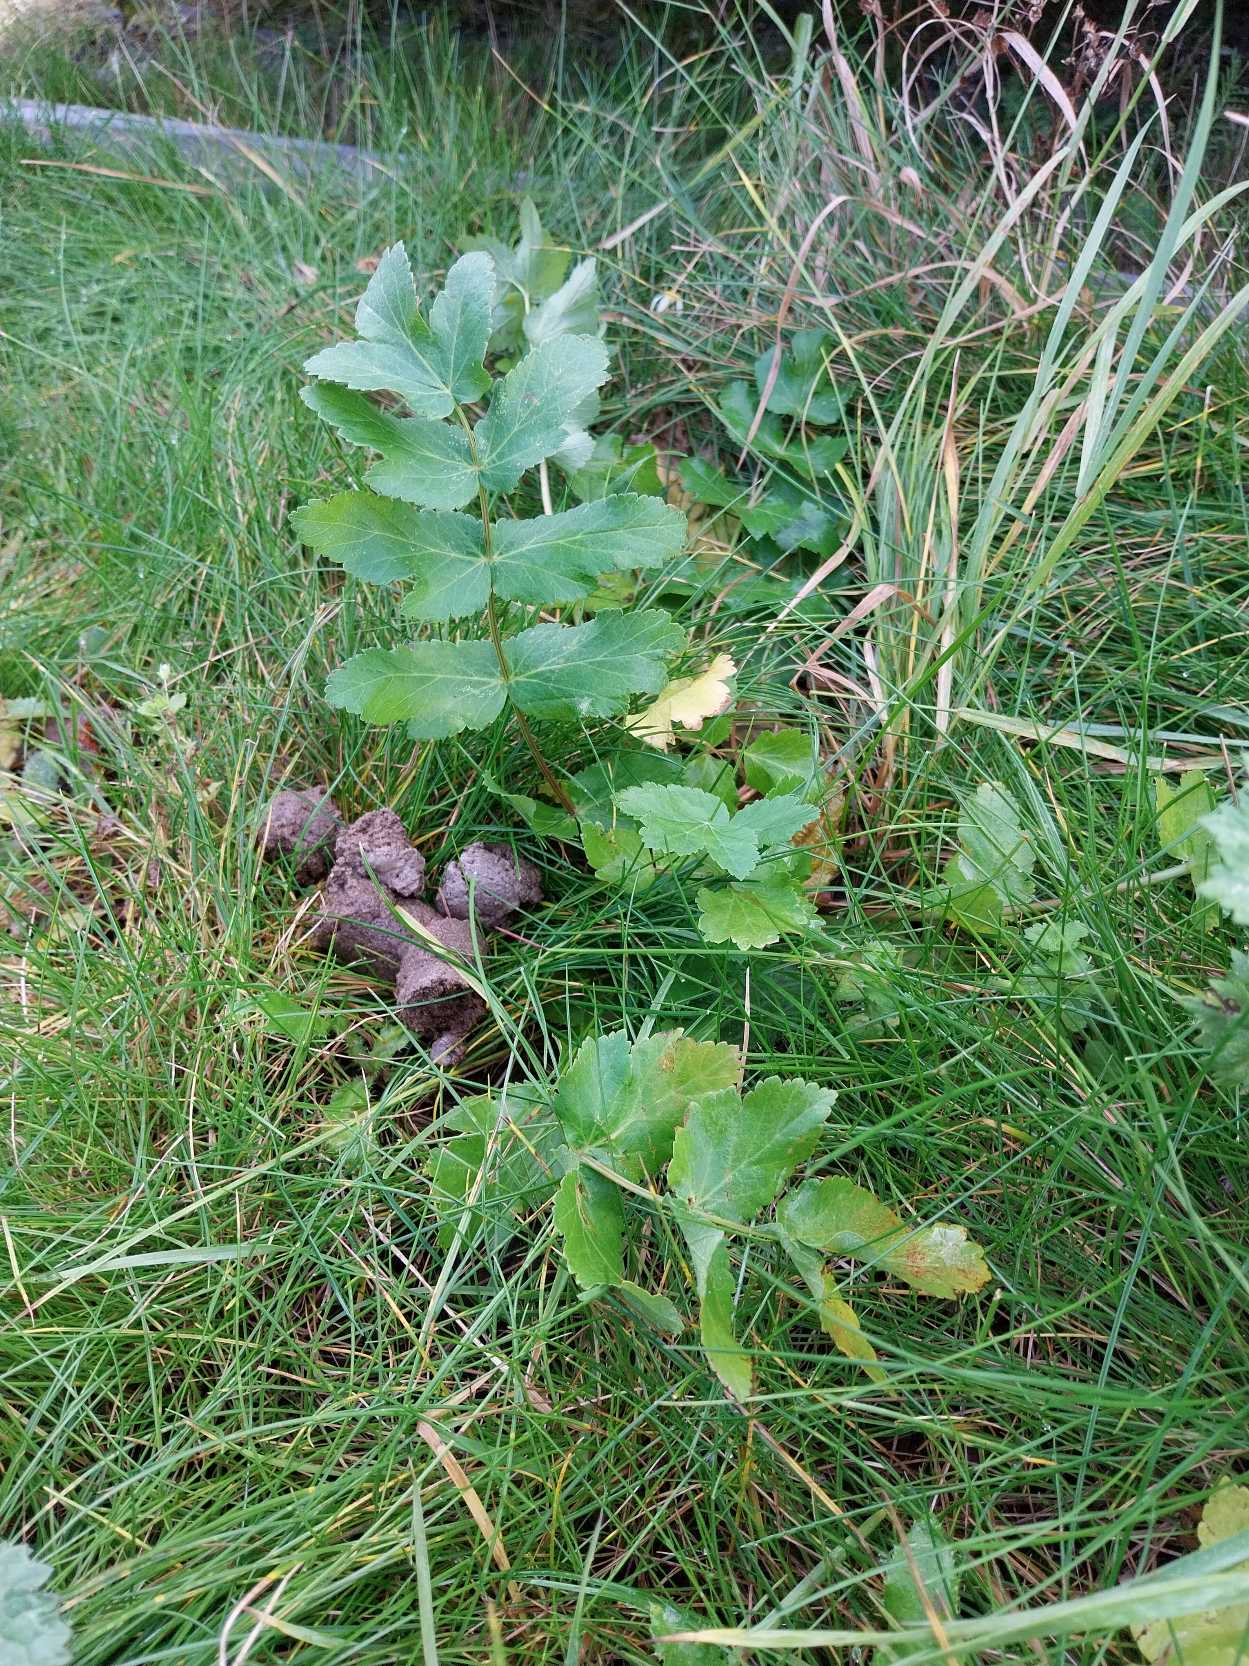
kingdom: Plantae
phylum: Tracheophyta
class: Magnoliopsida
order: Apiales
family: Apiaceae
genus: Pastinaca
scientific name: Pastinaca sativa
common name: Pastinak
